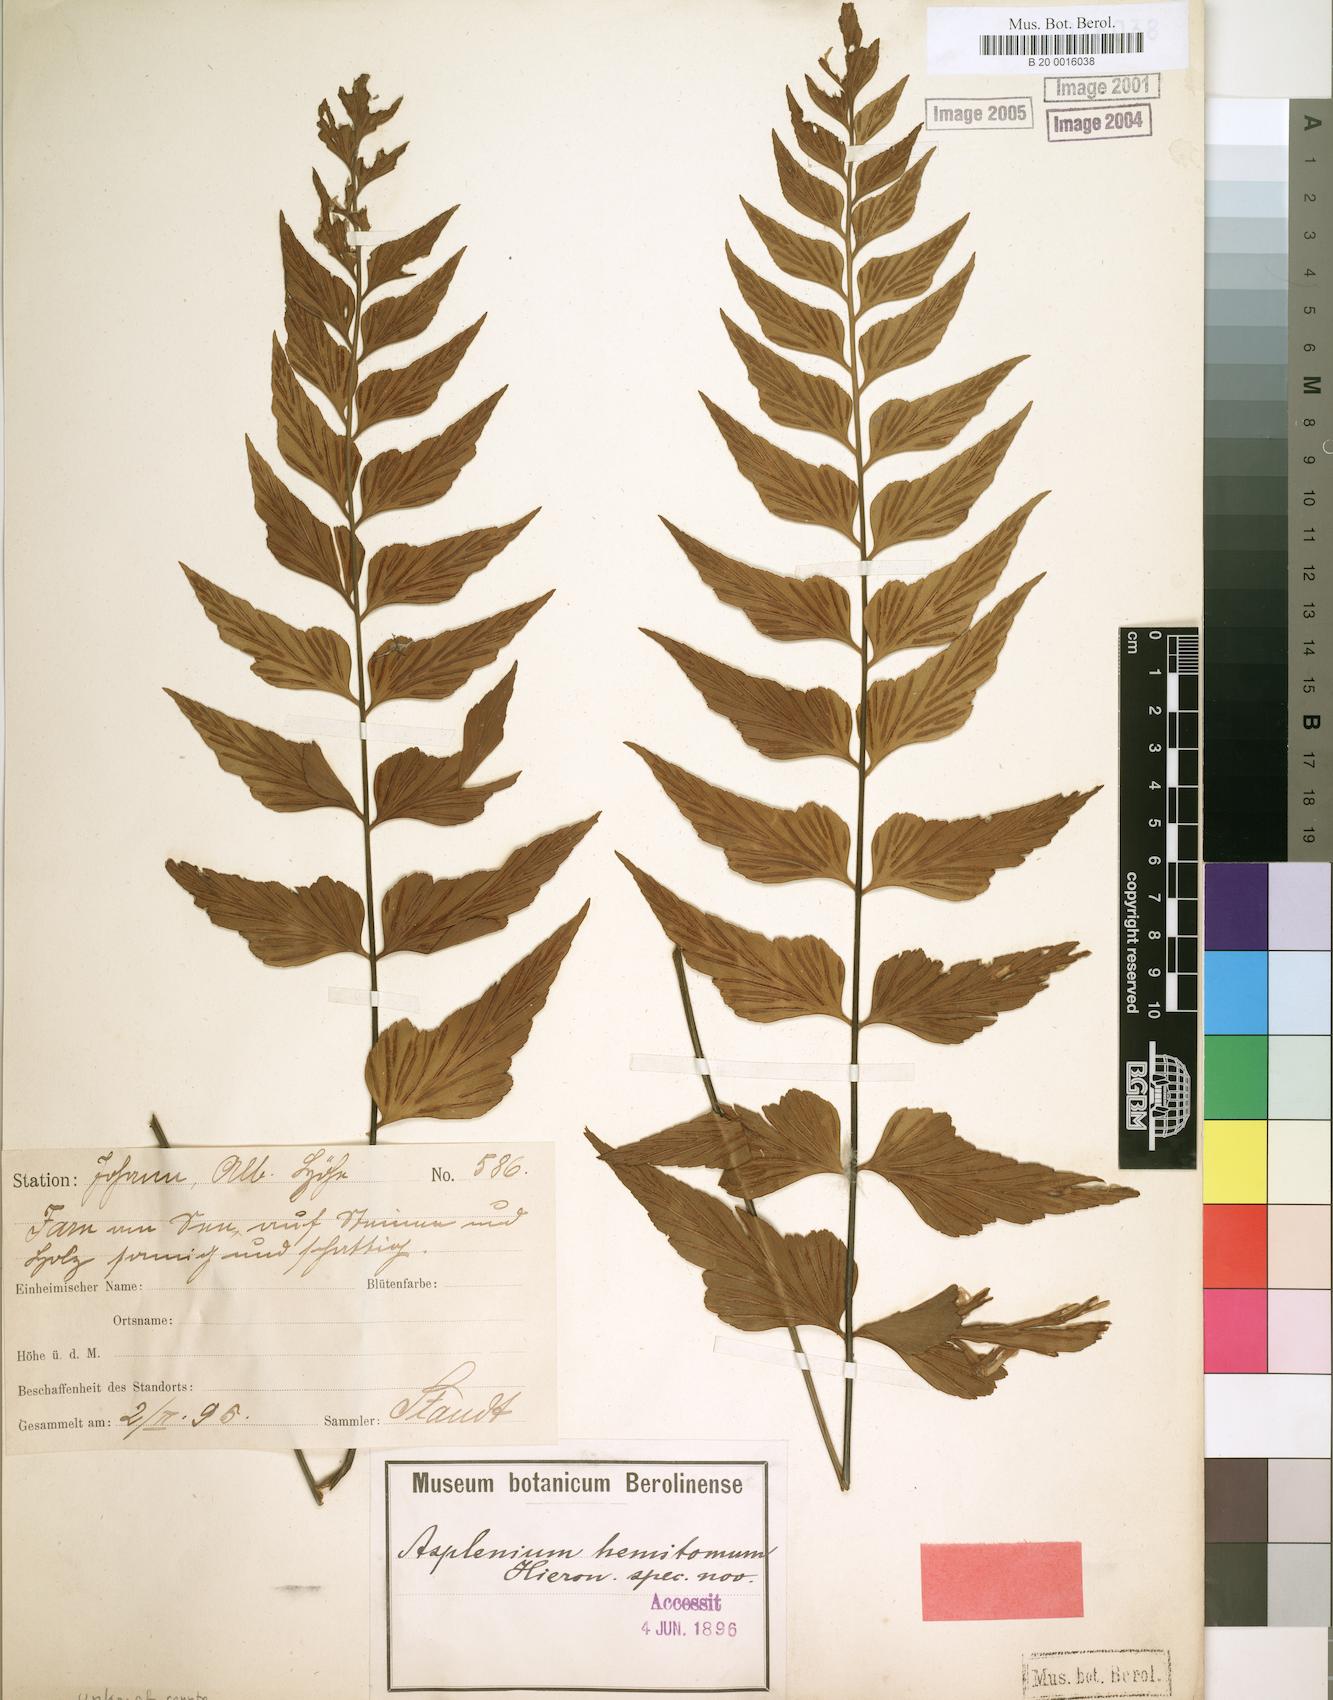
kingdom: Plantae
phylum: Tracheophyta
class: Polypodiopsida
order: Polypodiales
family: Aspleniaceae
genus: Asplenium
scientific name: Asplenium hemitomum
